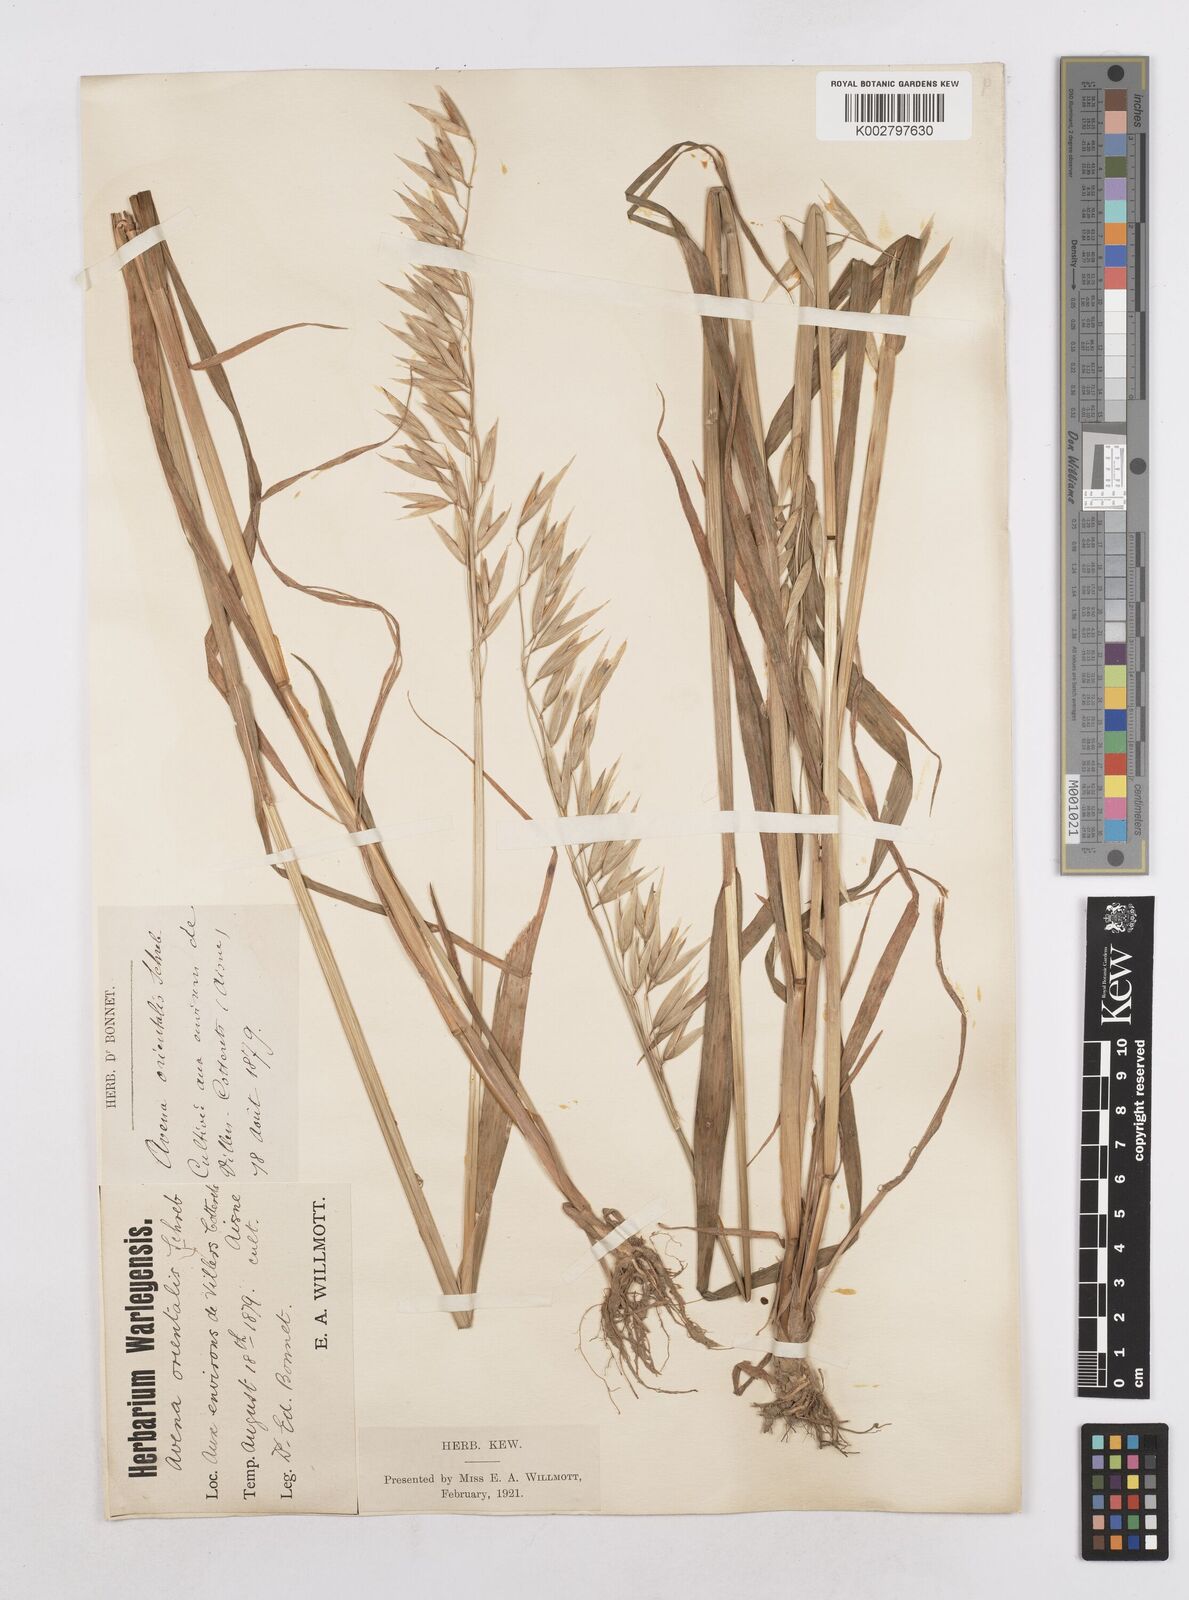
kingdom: Plantae
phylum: Tracheophyta
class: Liliopsida
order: Poales
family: Poaceae
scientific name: Poaceae
